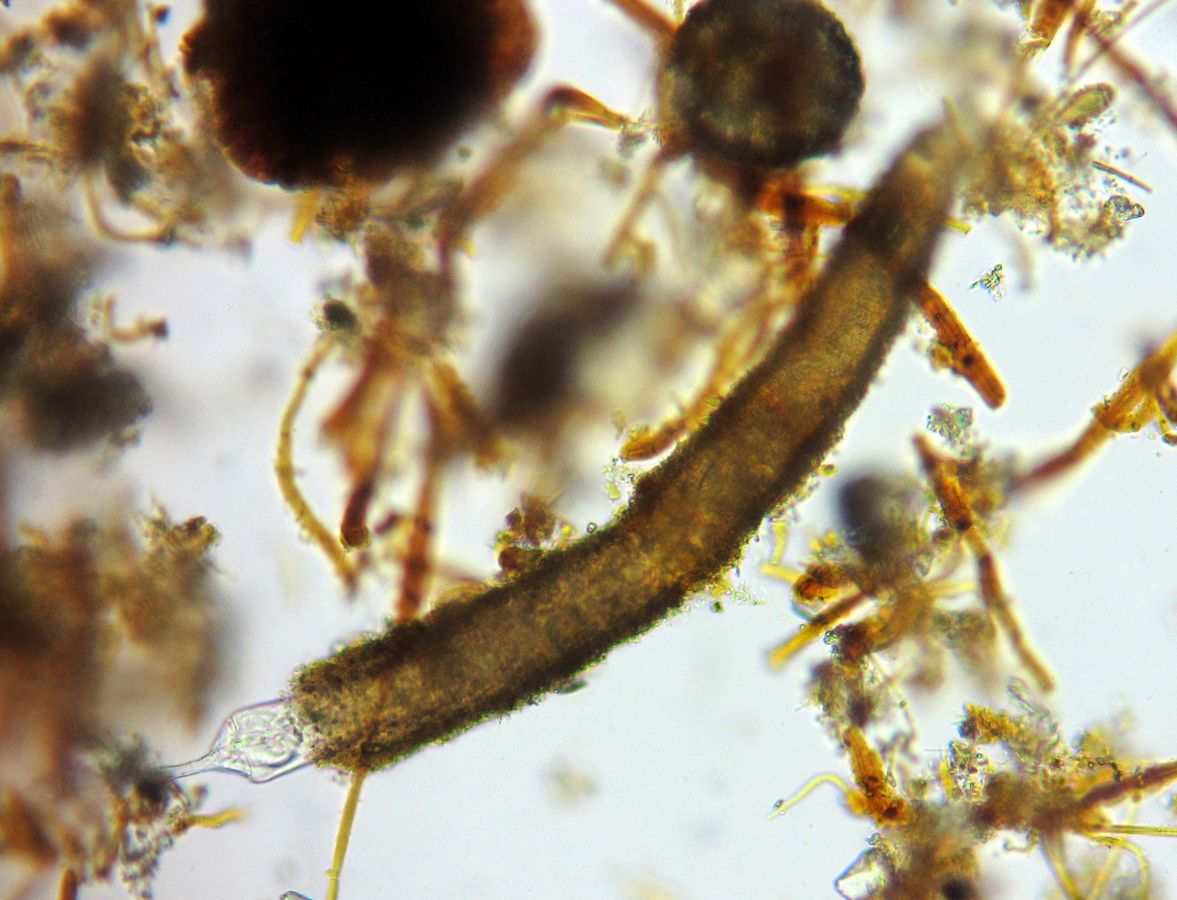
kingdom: Animalia
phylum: Rotifera
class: Eurotatoria
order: Flosculariaceae
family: Flosculariidae
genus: Beauchampia
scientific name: Beauchampia crucigera
